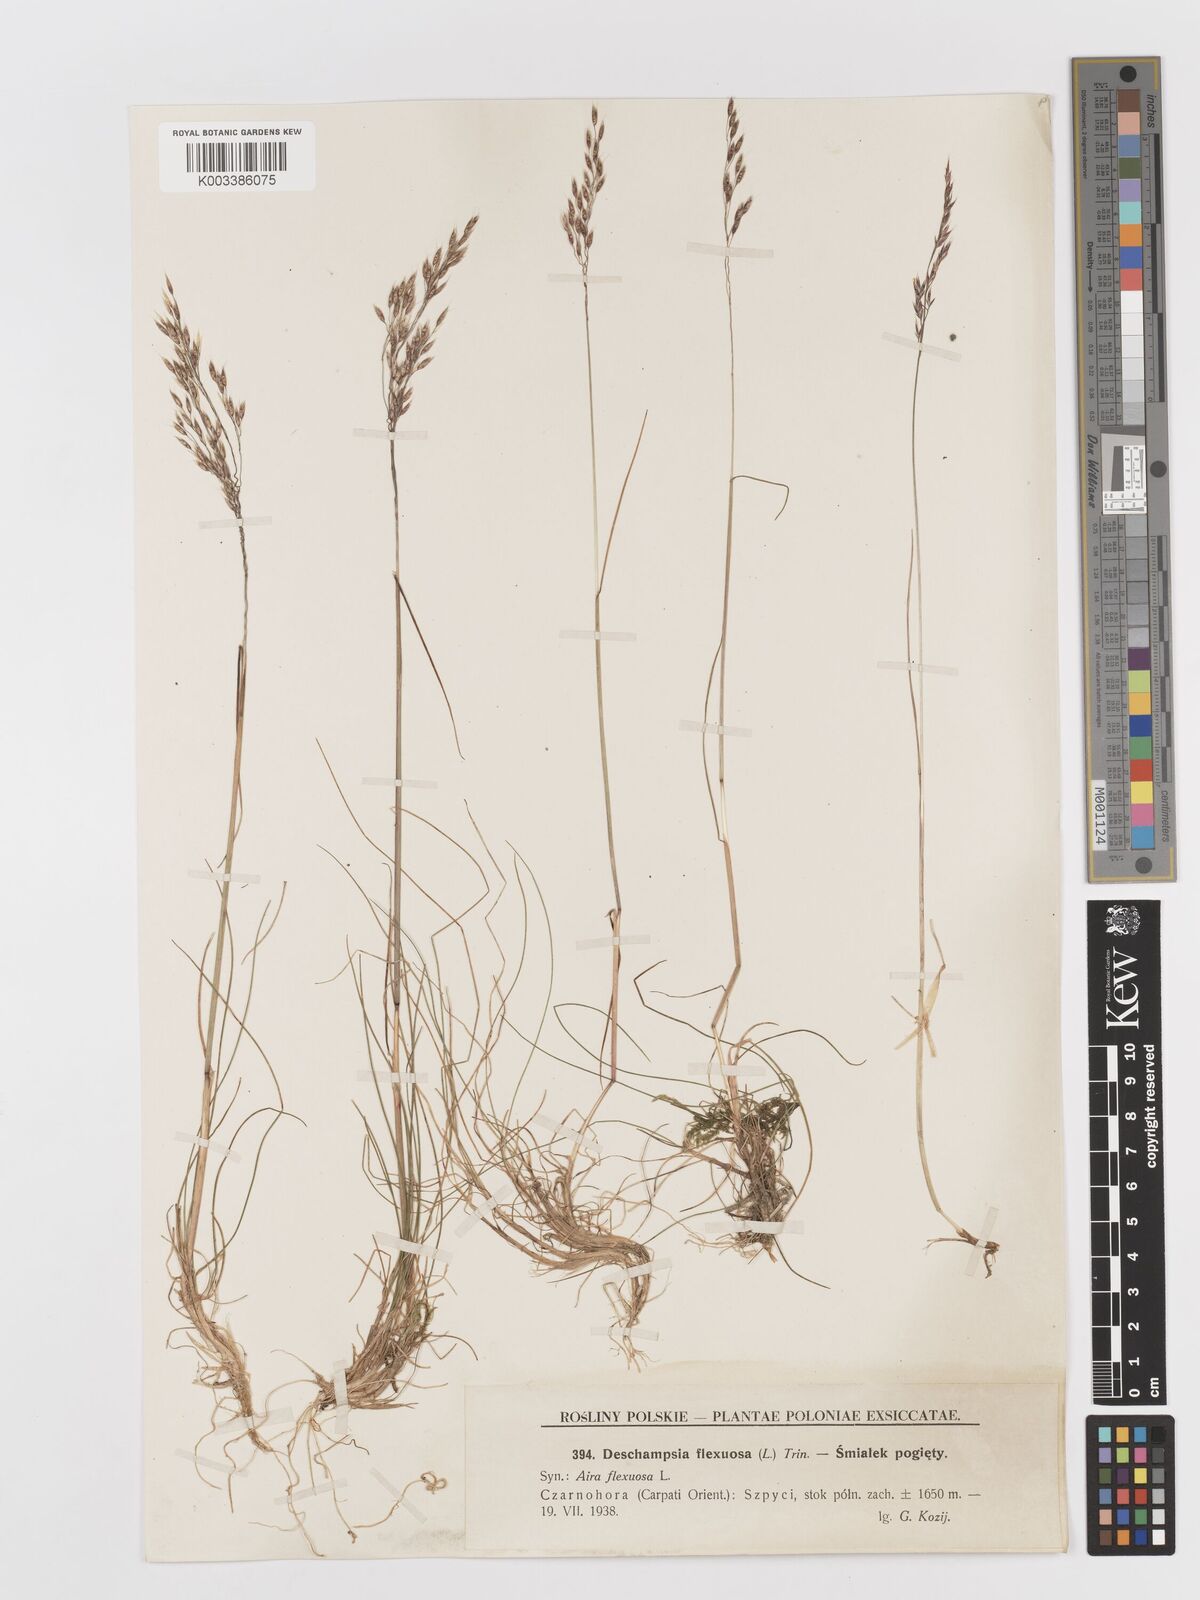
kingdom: Plantae
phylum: Tracheophyta
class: Liliopsida
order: Poales
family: Poaceae
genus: Avenella
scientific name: Avenella flexuosa
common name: Wavy hairgrass
